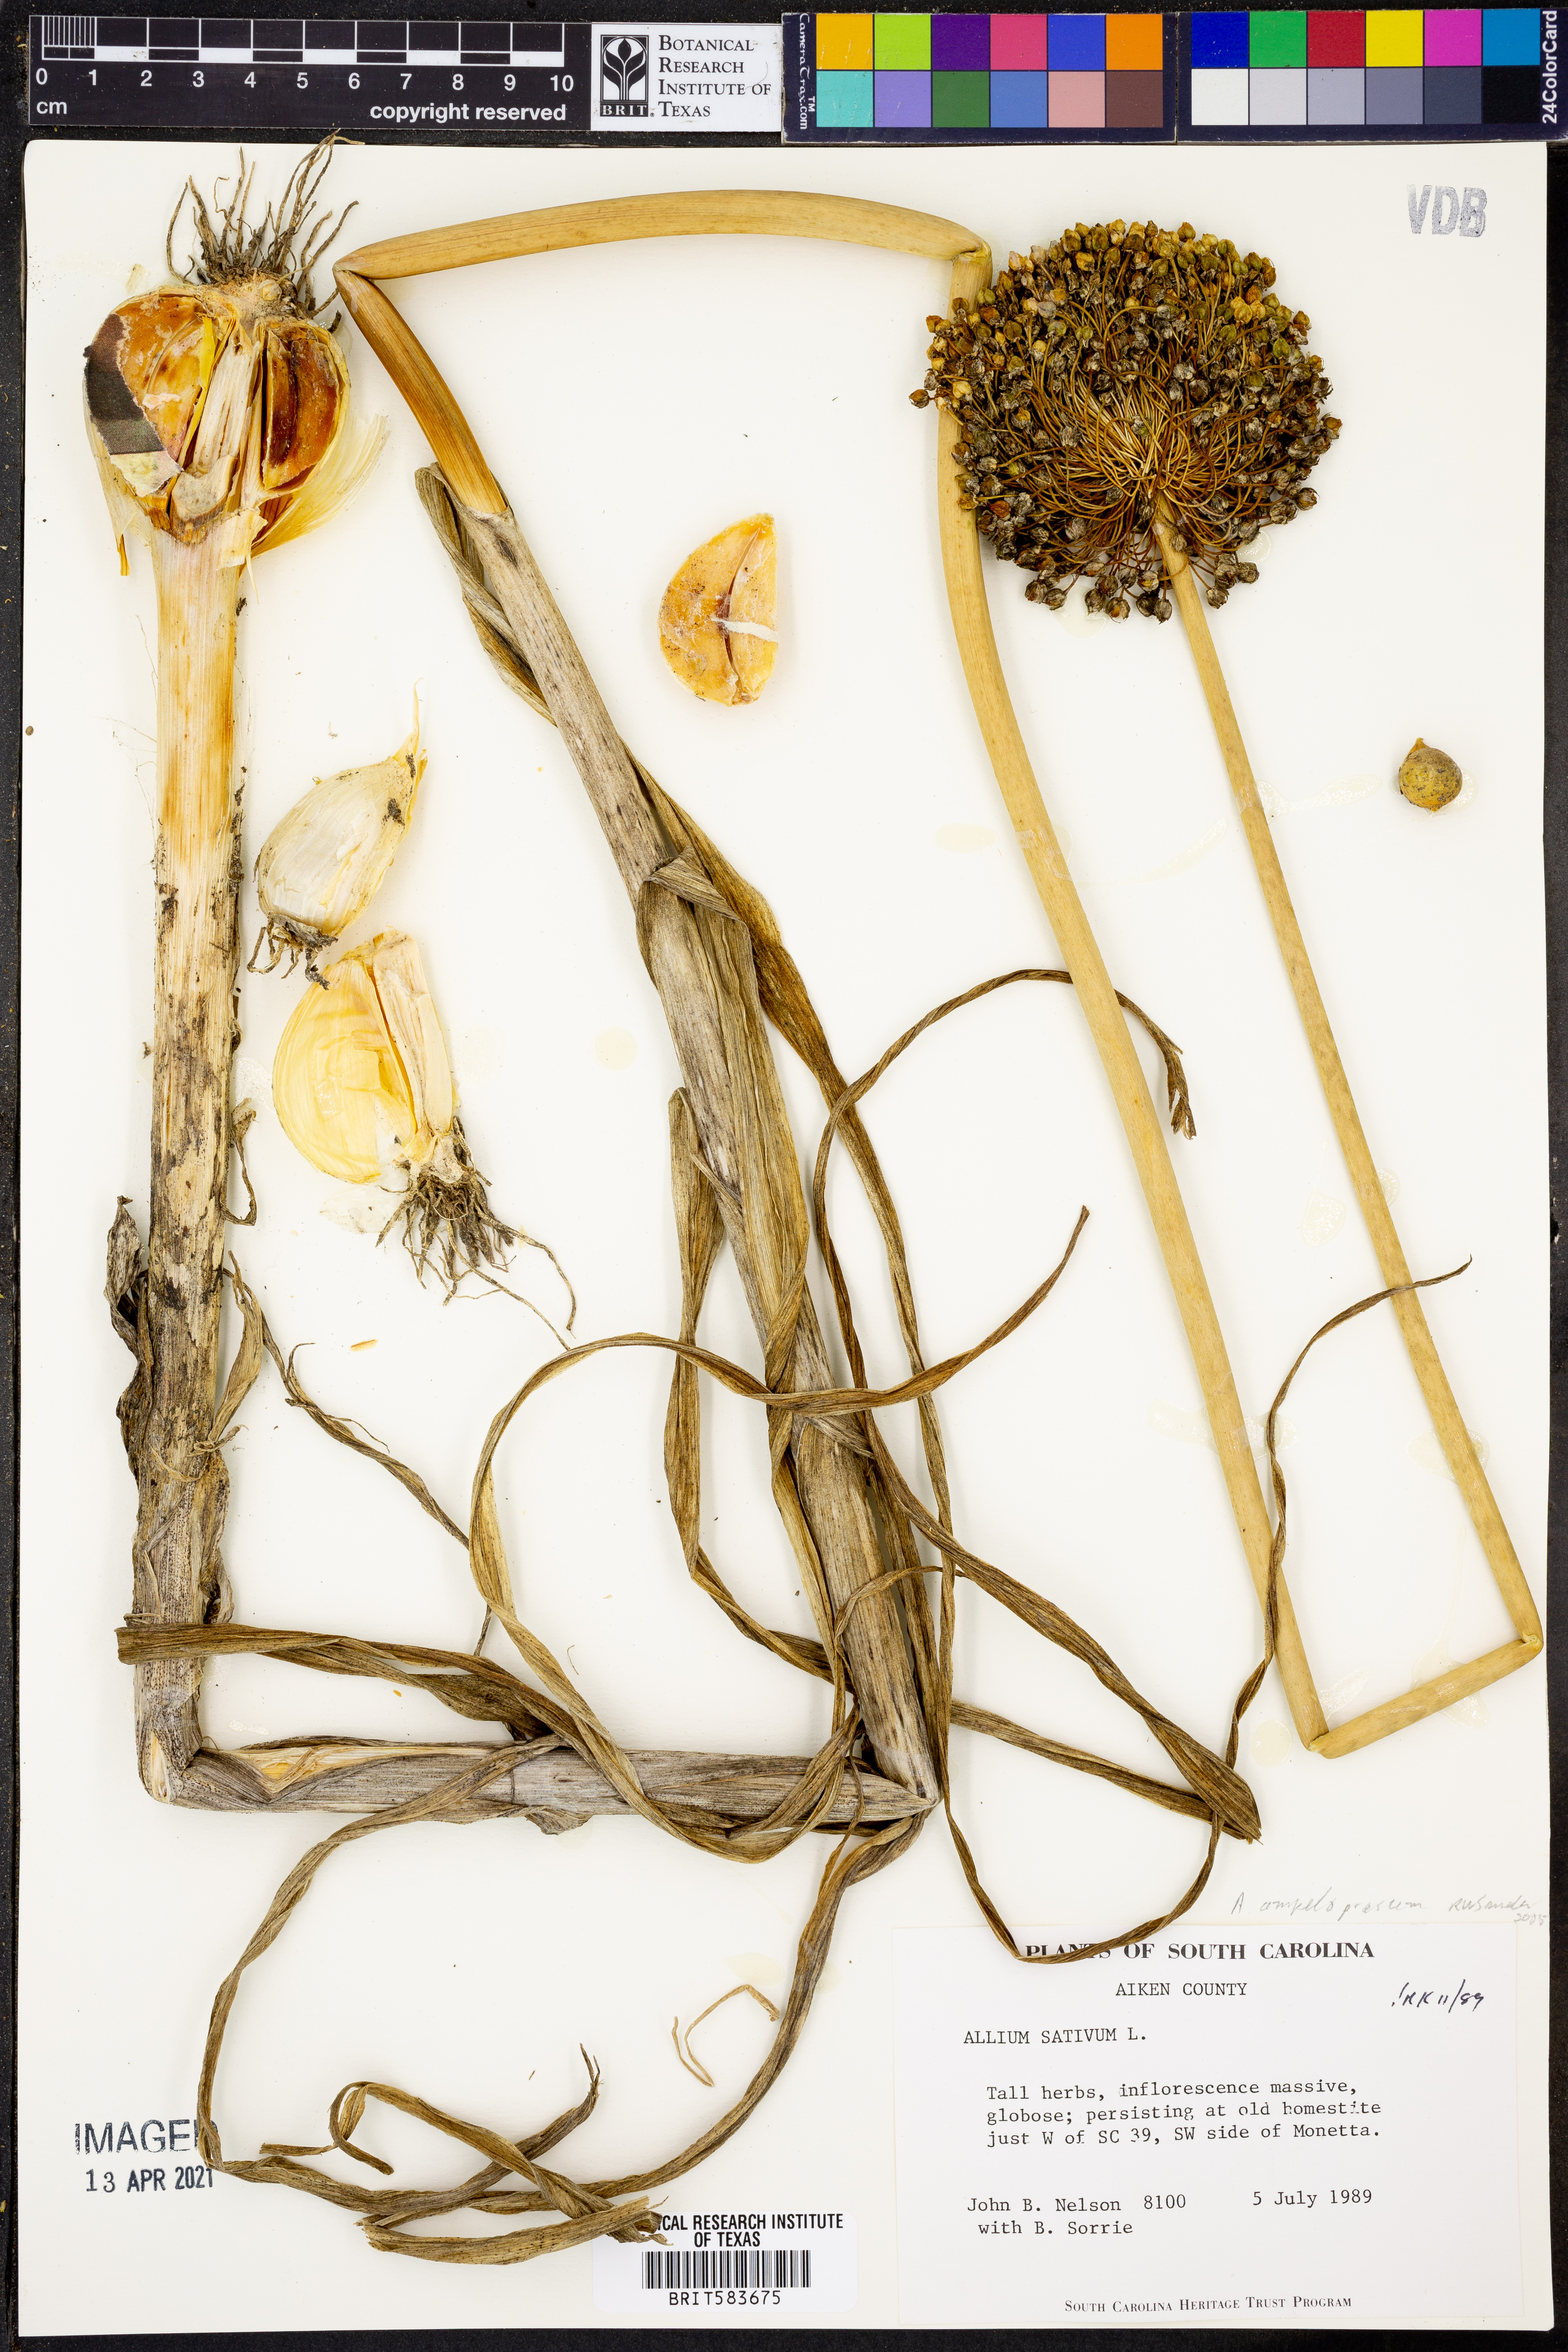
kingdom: Plantae
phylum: Tracheophyta
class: Liliopsida
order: Asparagales
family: Amaryllidaceae
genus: Allium
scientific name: Allium sativum
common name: Garlic
